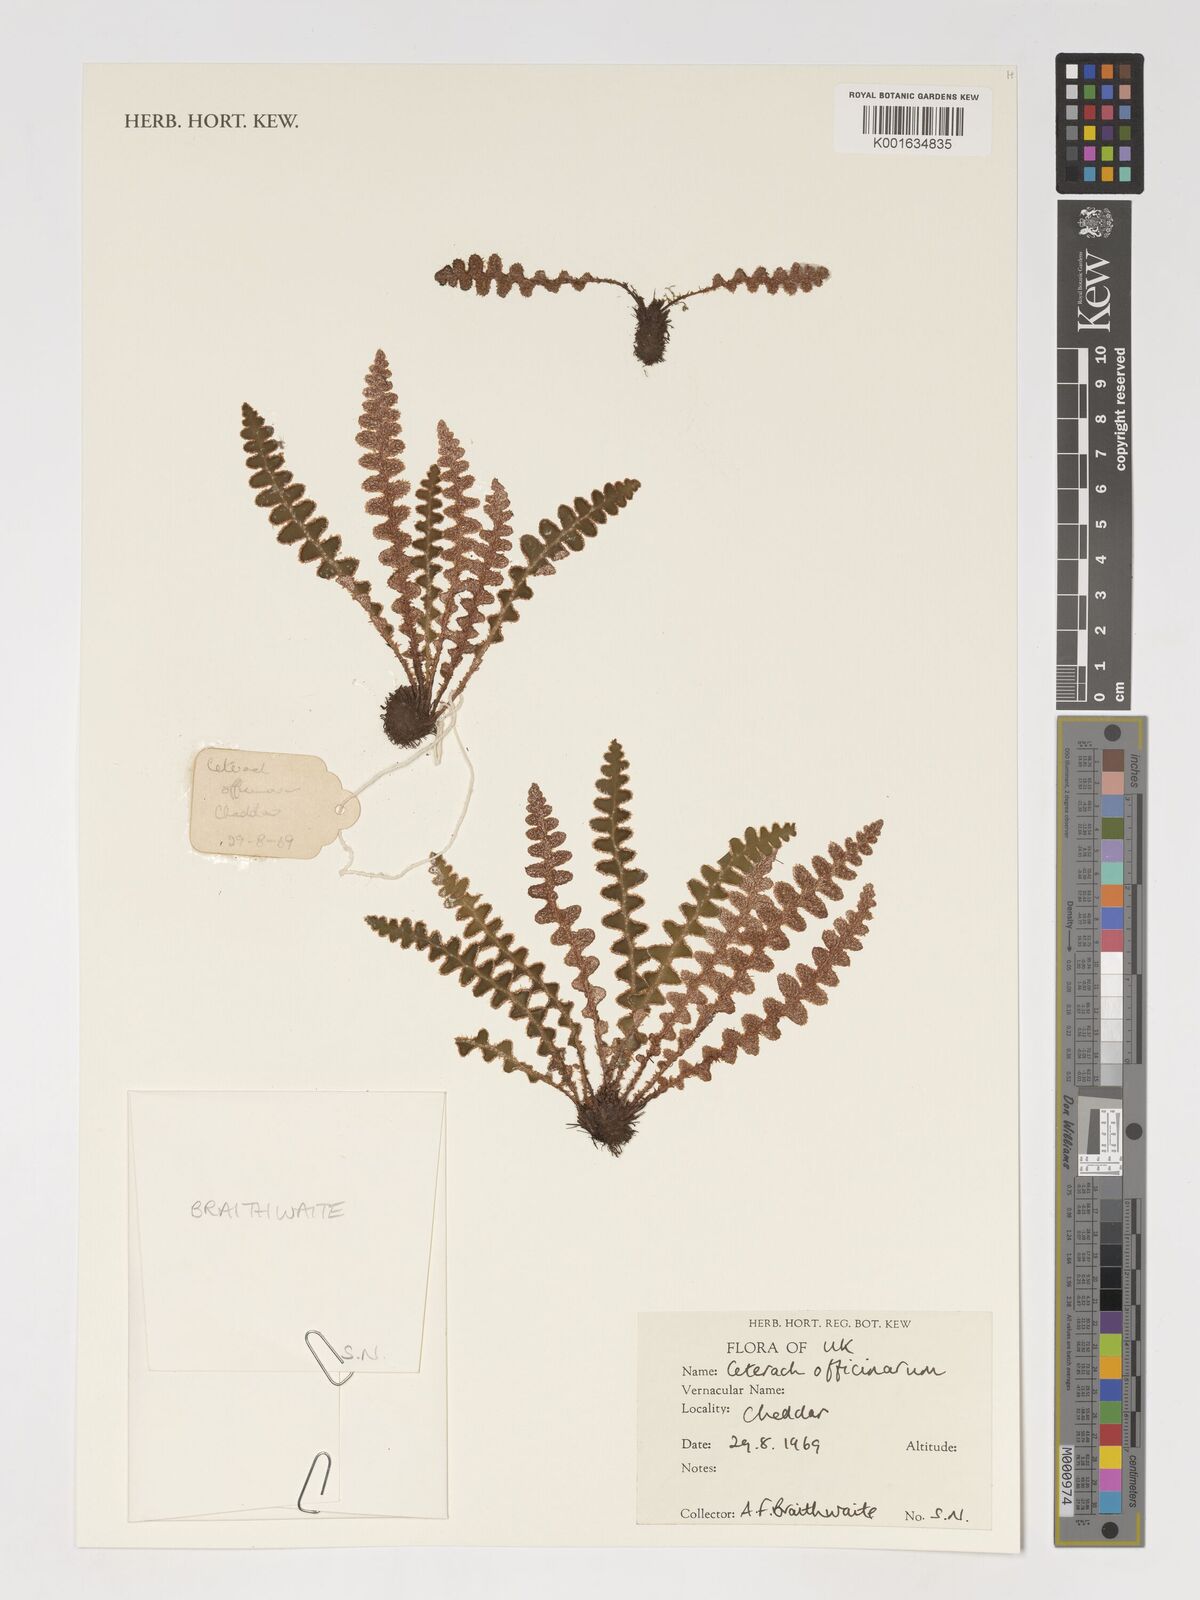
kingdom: Plantae
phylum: Tracheophyta
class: Polypodiopsida
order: Polypodiales
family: Aspleniaceae
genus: Asplenium
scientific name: Asplenium ceterach
